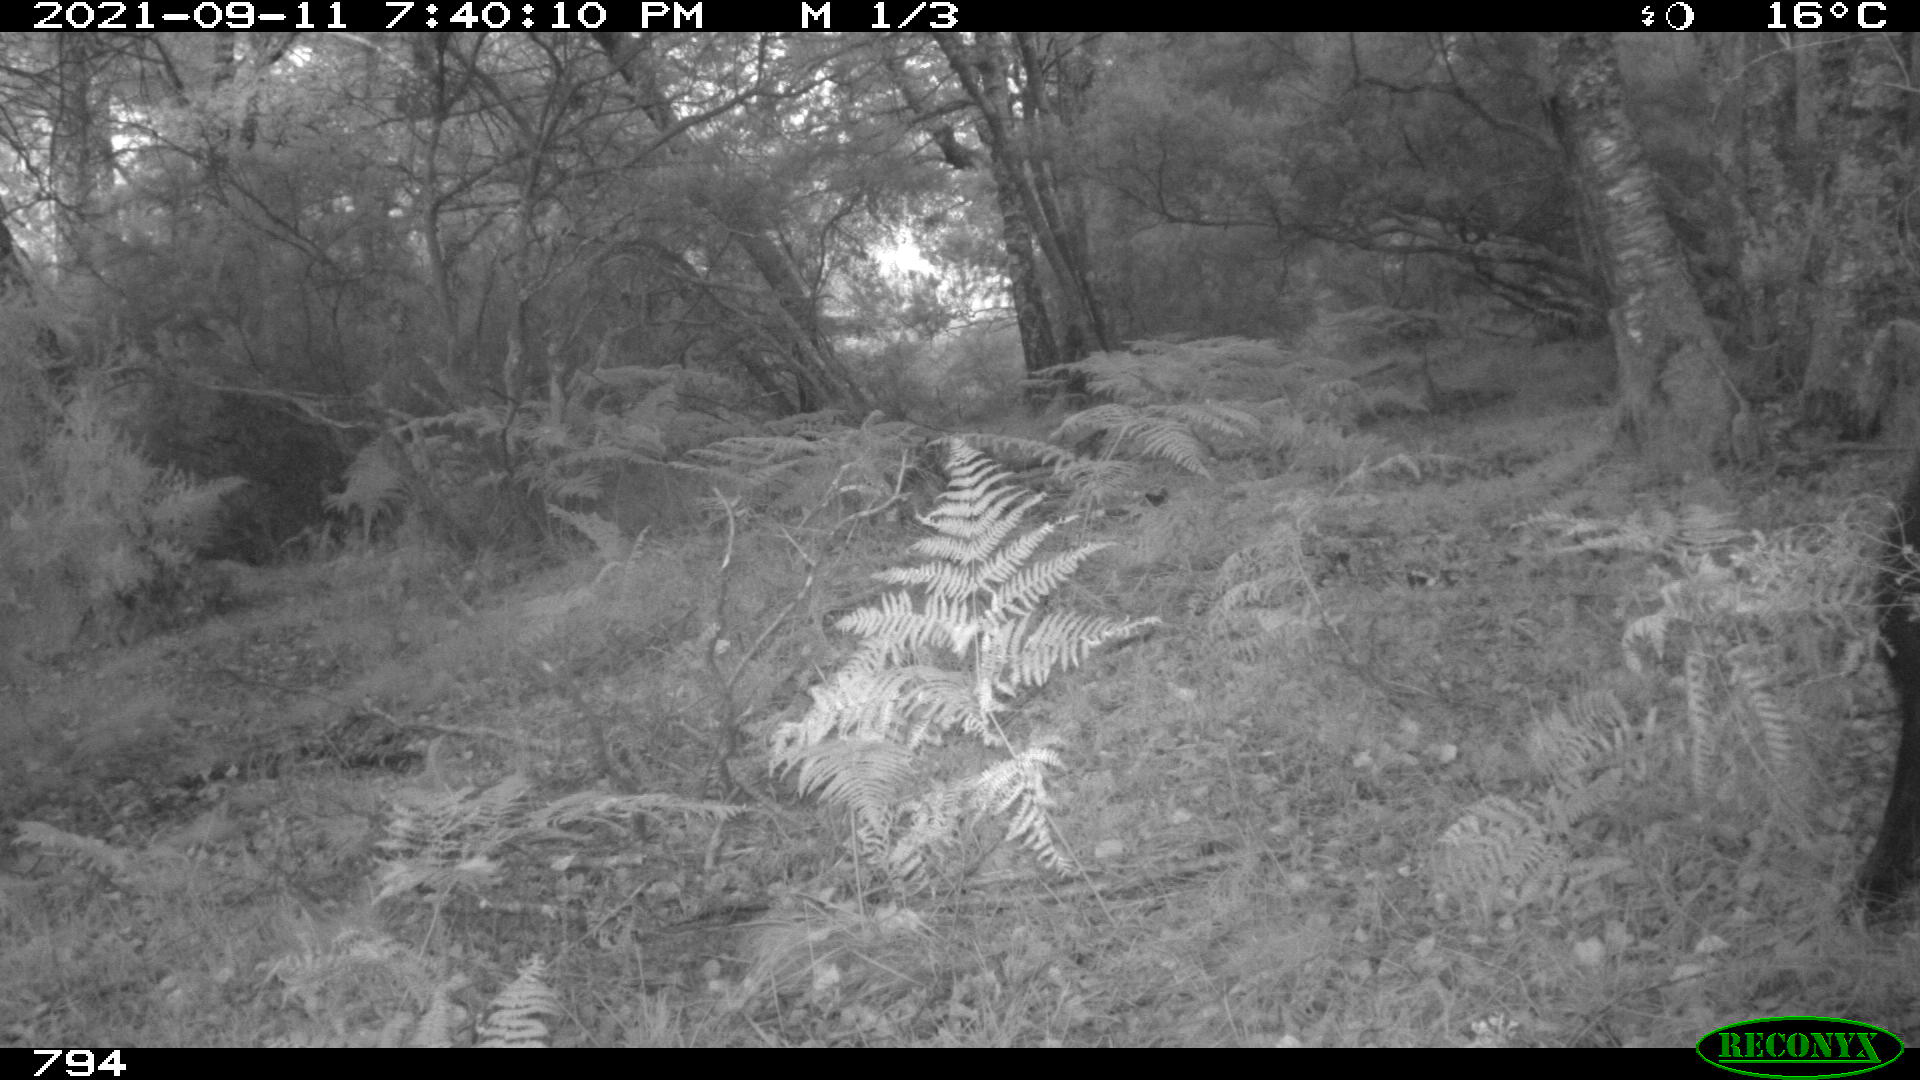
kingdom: Animalia
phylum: Chordata
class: Mammalia
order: Artiodactyla
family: Suidae
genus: Sus
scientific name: Sus scrofa
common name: Wild boar
